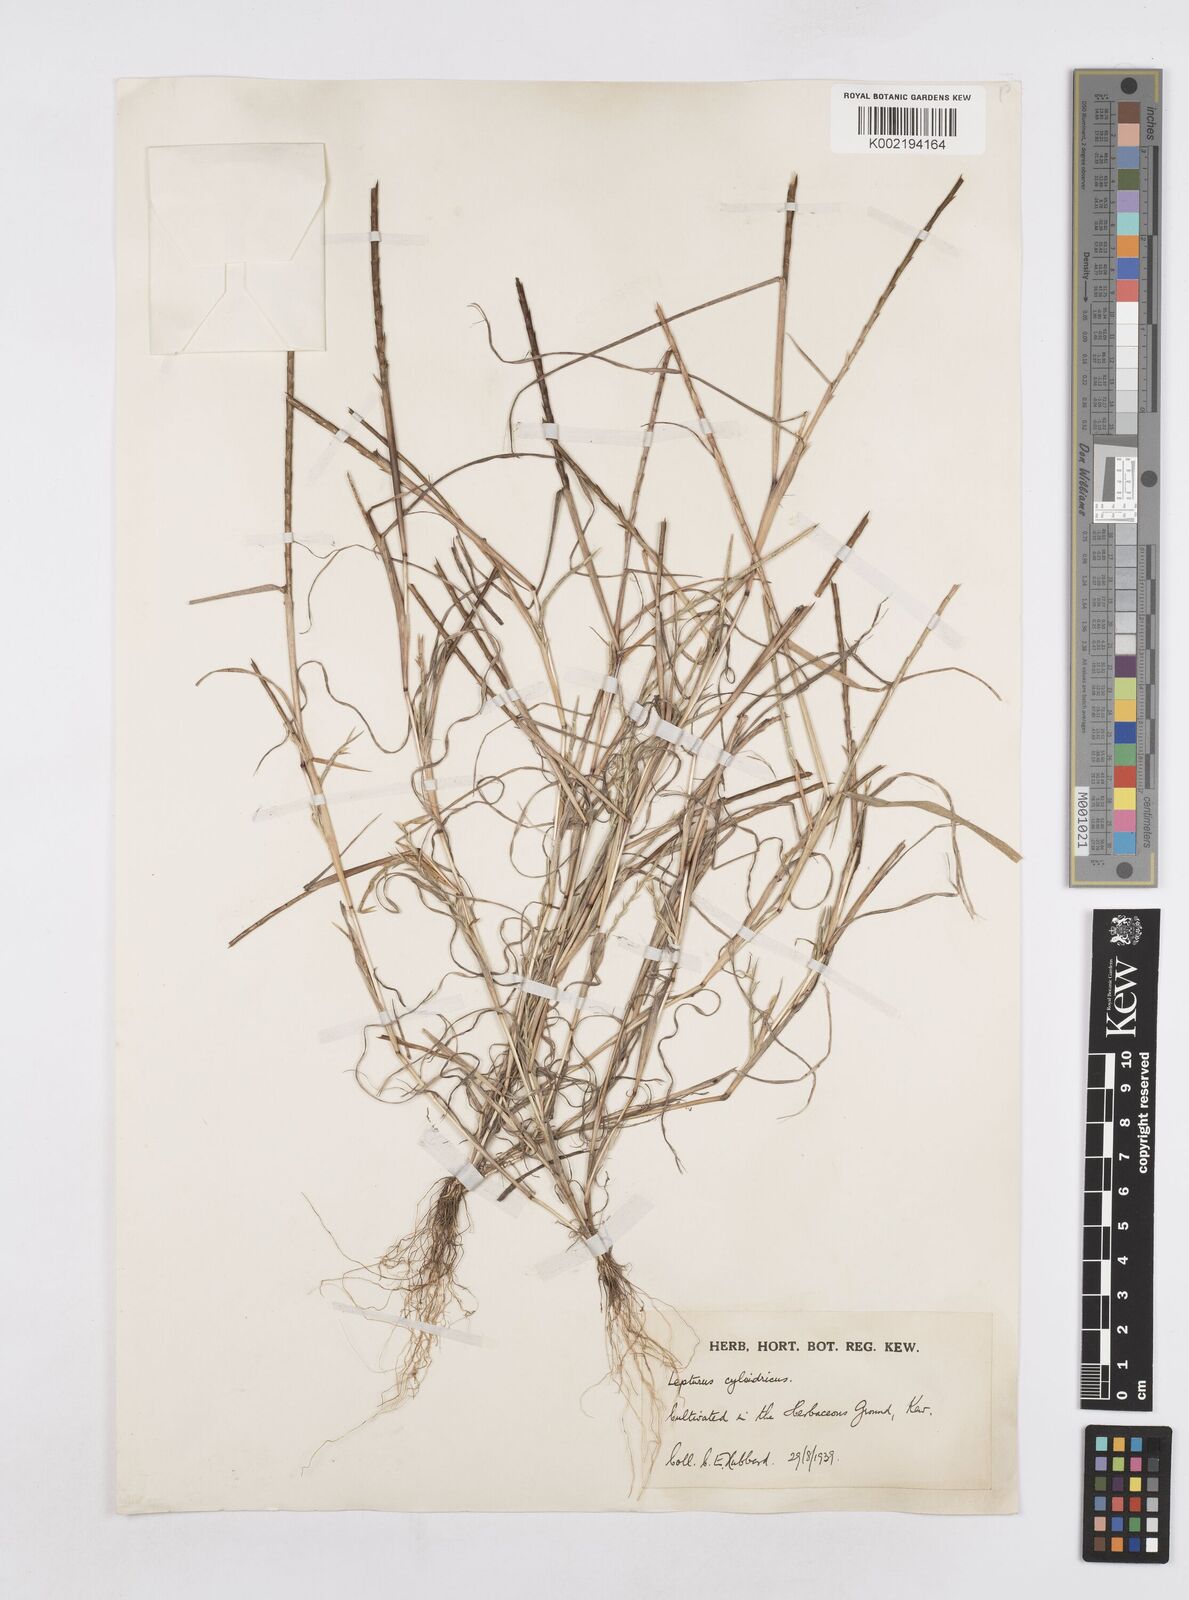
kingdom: Plantae
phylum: Tracheophyta
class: Liliopsida
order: Poales
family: Poaceae
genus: Parapholis
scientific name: Parapholis cylindrica
